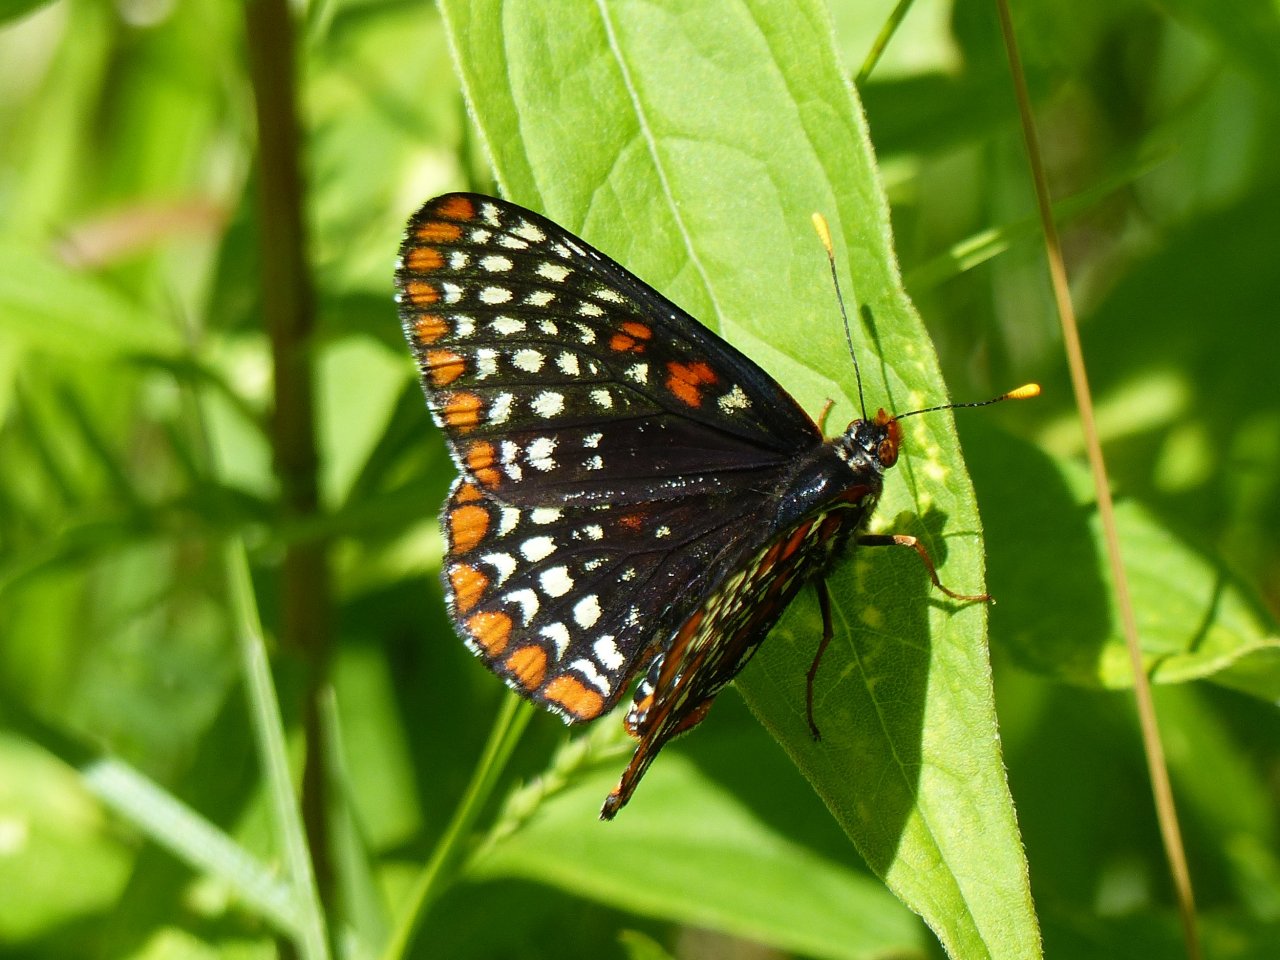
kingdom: Animalia
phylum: Arthropoda
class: Insecta
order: Lepidoptera
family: Nymphalidae
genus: Euphydryas
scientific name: Euphydryas phaeton
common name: Baltimore Checkerspot
